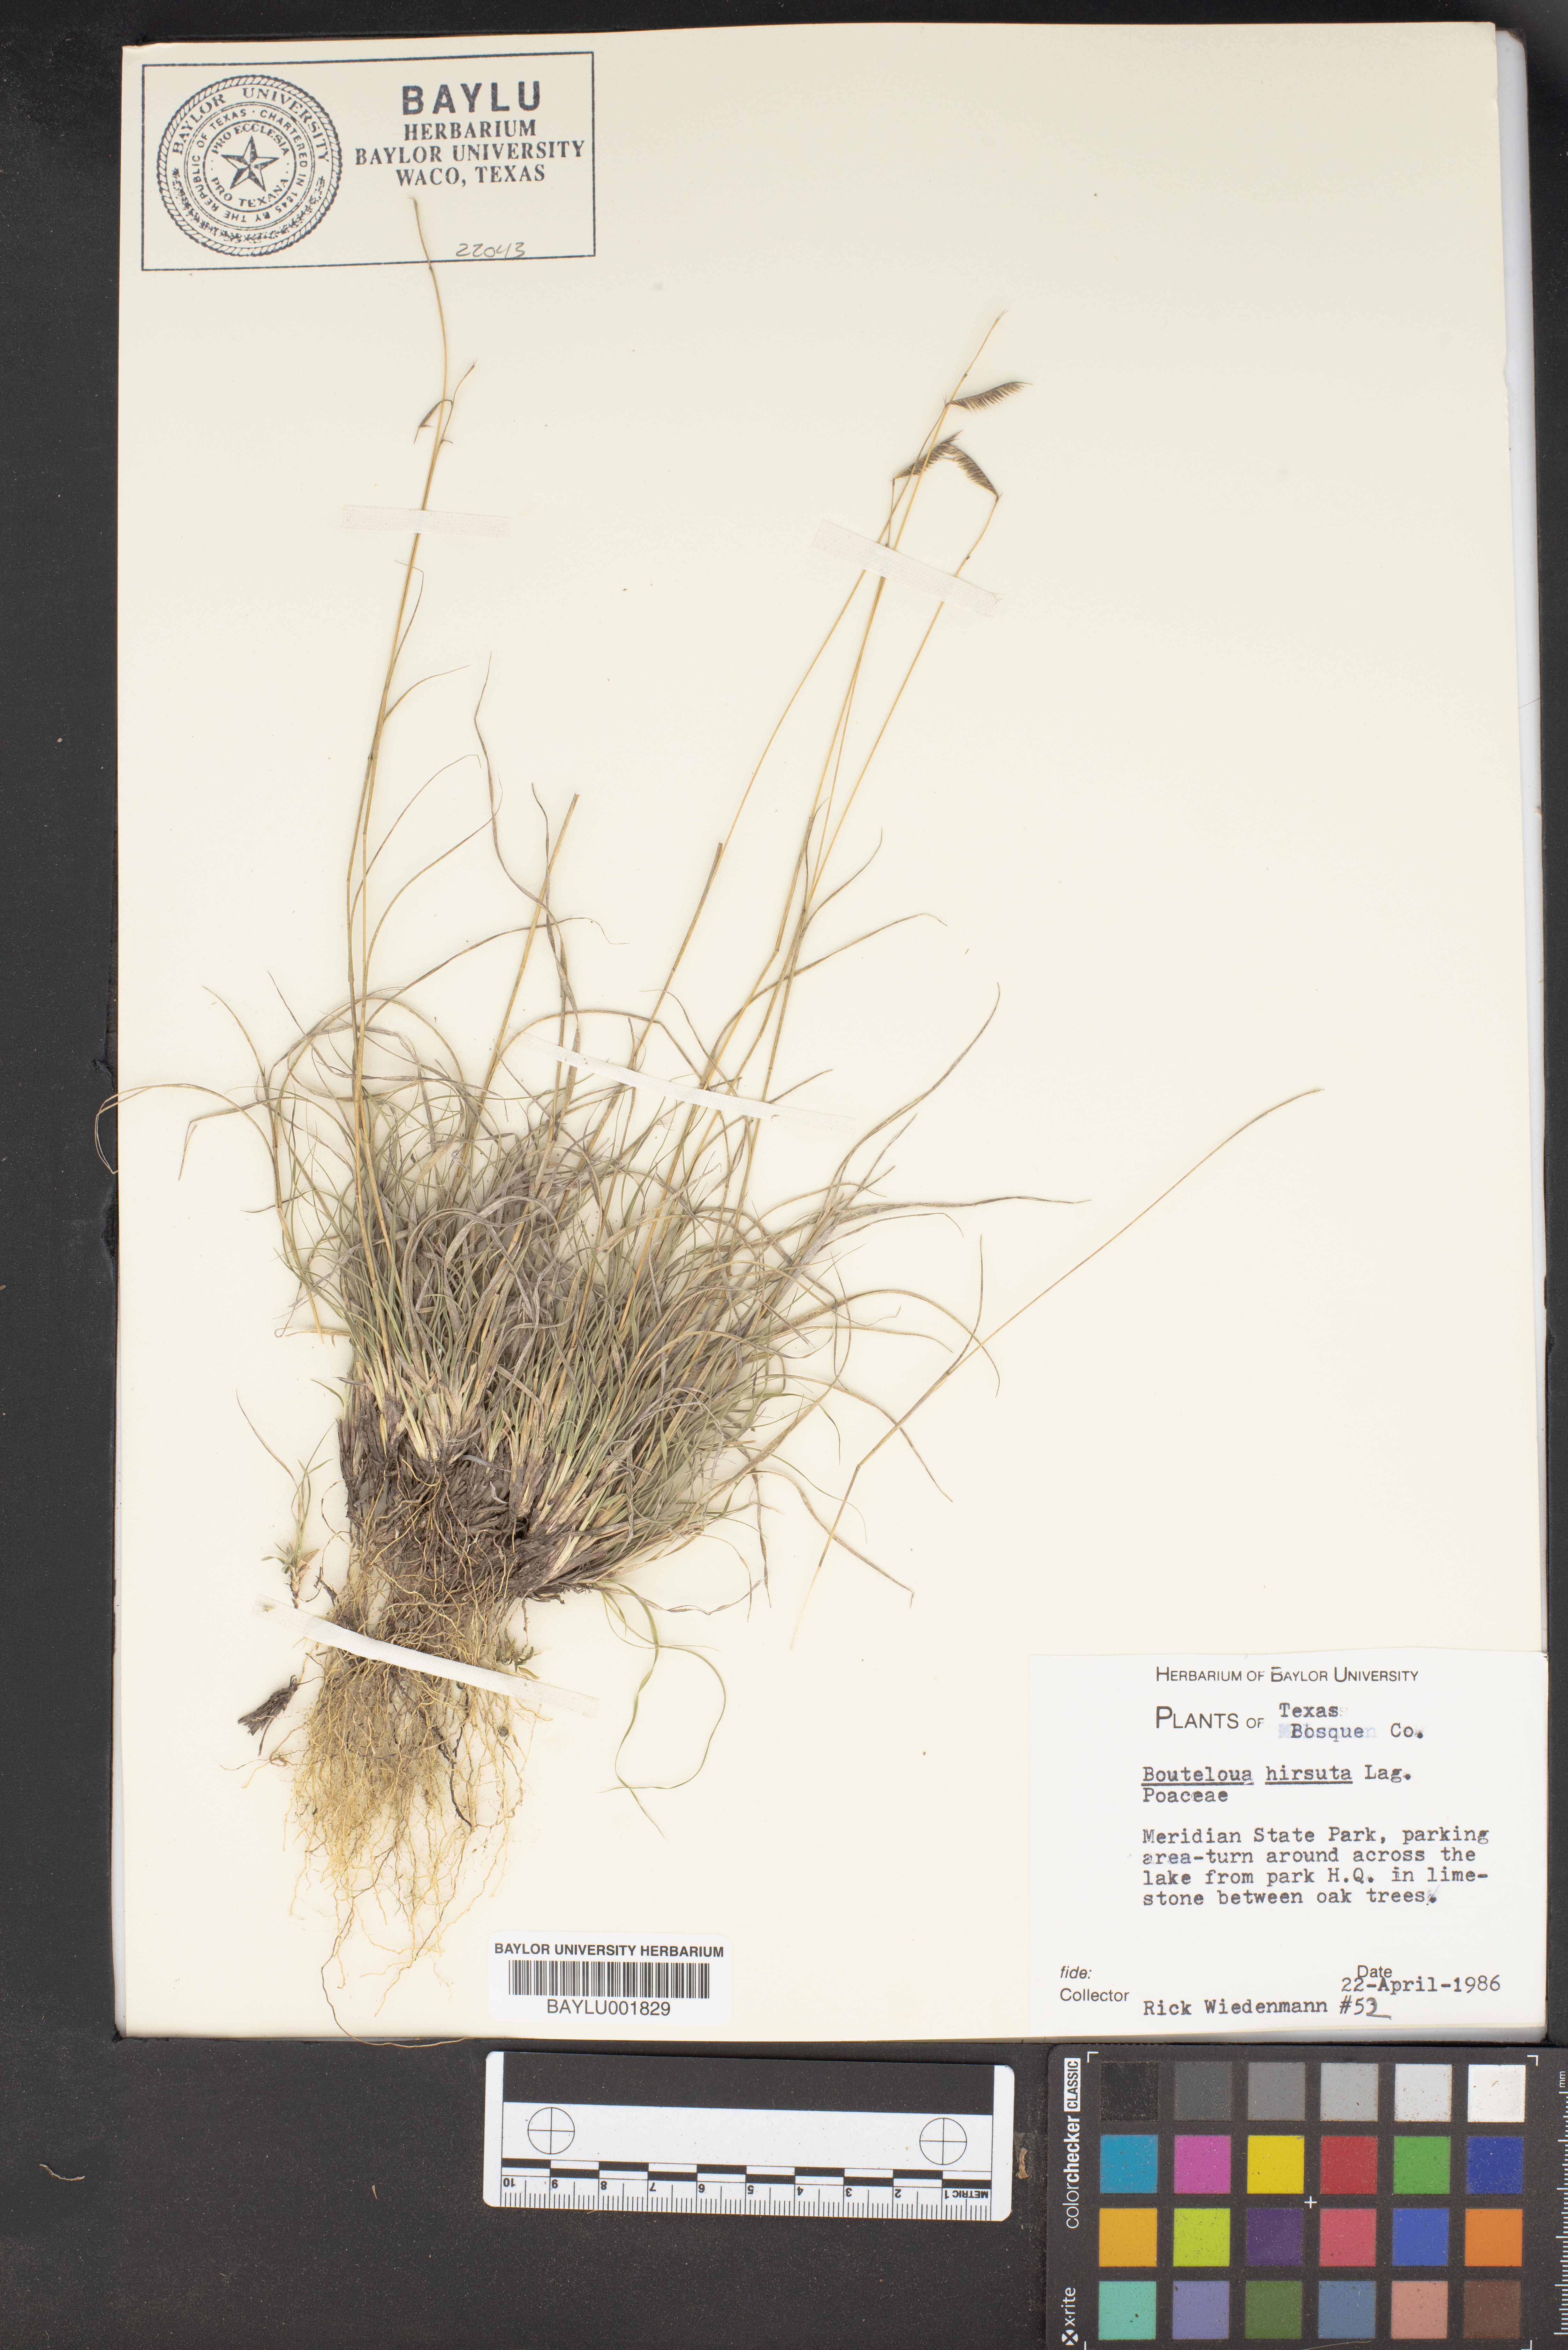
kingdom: Plantae
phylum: Tracheophyta
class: Liliopsida
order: Poales
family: Poaceae
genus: Bouteloua
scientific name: Bouteloua hirsuta
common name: Hairy grama
